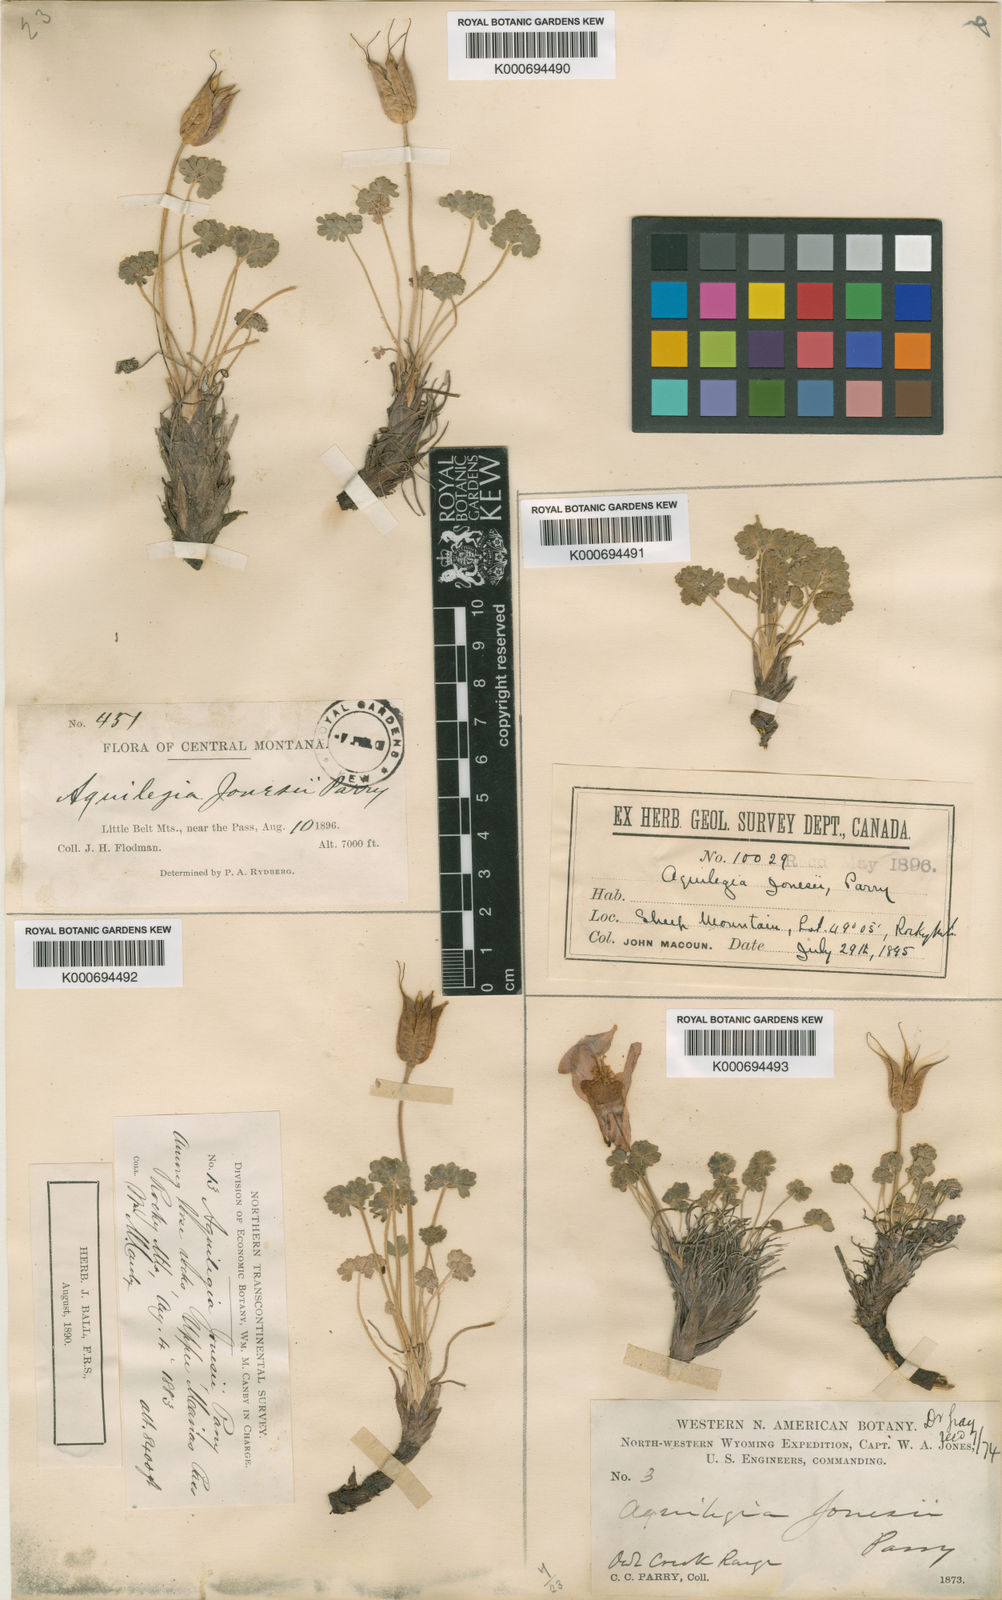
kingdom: Plantae
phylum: Tracheophyta
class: Magnoliopsida
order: Ranunculales
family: Ranunculaceae
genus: Aquilegia
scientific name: Aquilegia jonesii
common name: Jones' columbine
